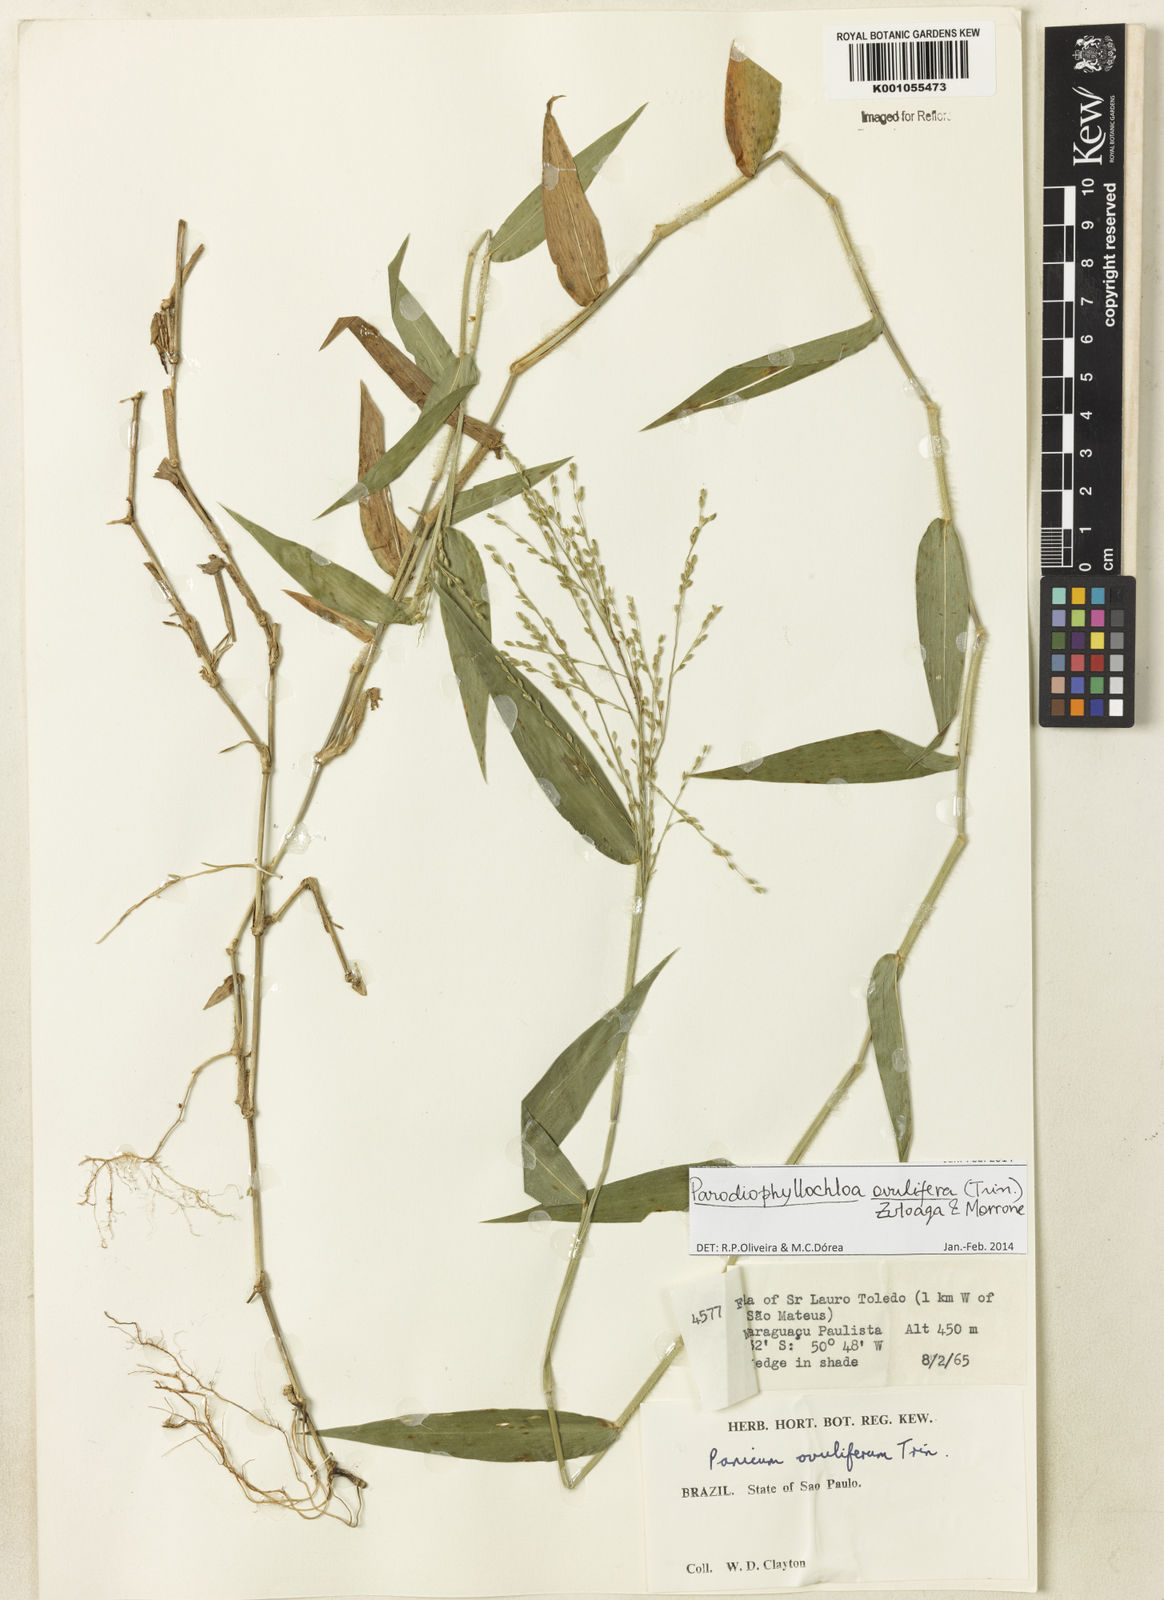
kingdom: Plantae
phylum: Tracheophyta
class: Liliopsida
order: Poales
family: Poaceae
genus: Parodiophyllochloa
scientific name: Parodiophyllochloa ovulifera
